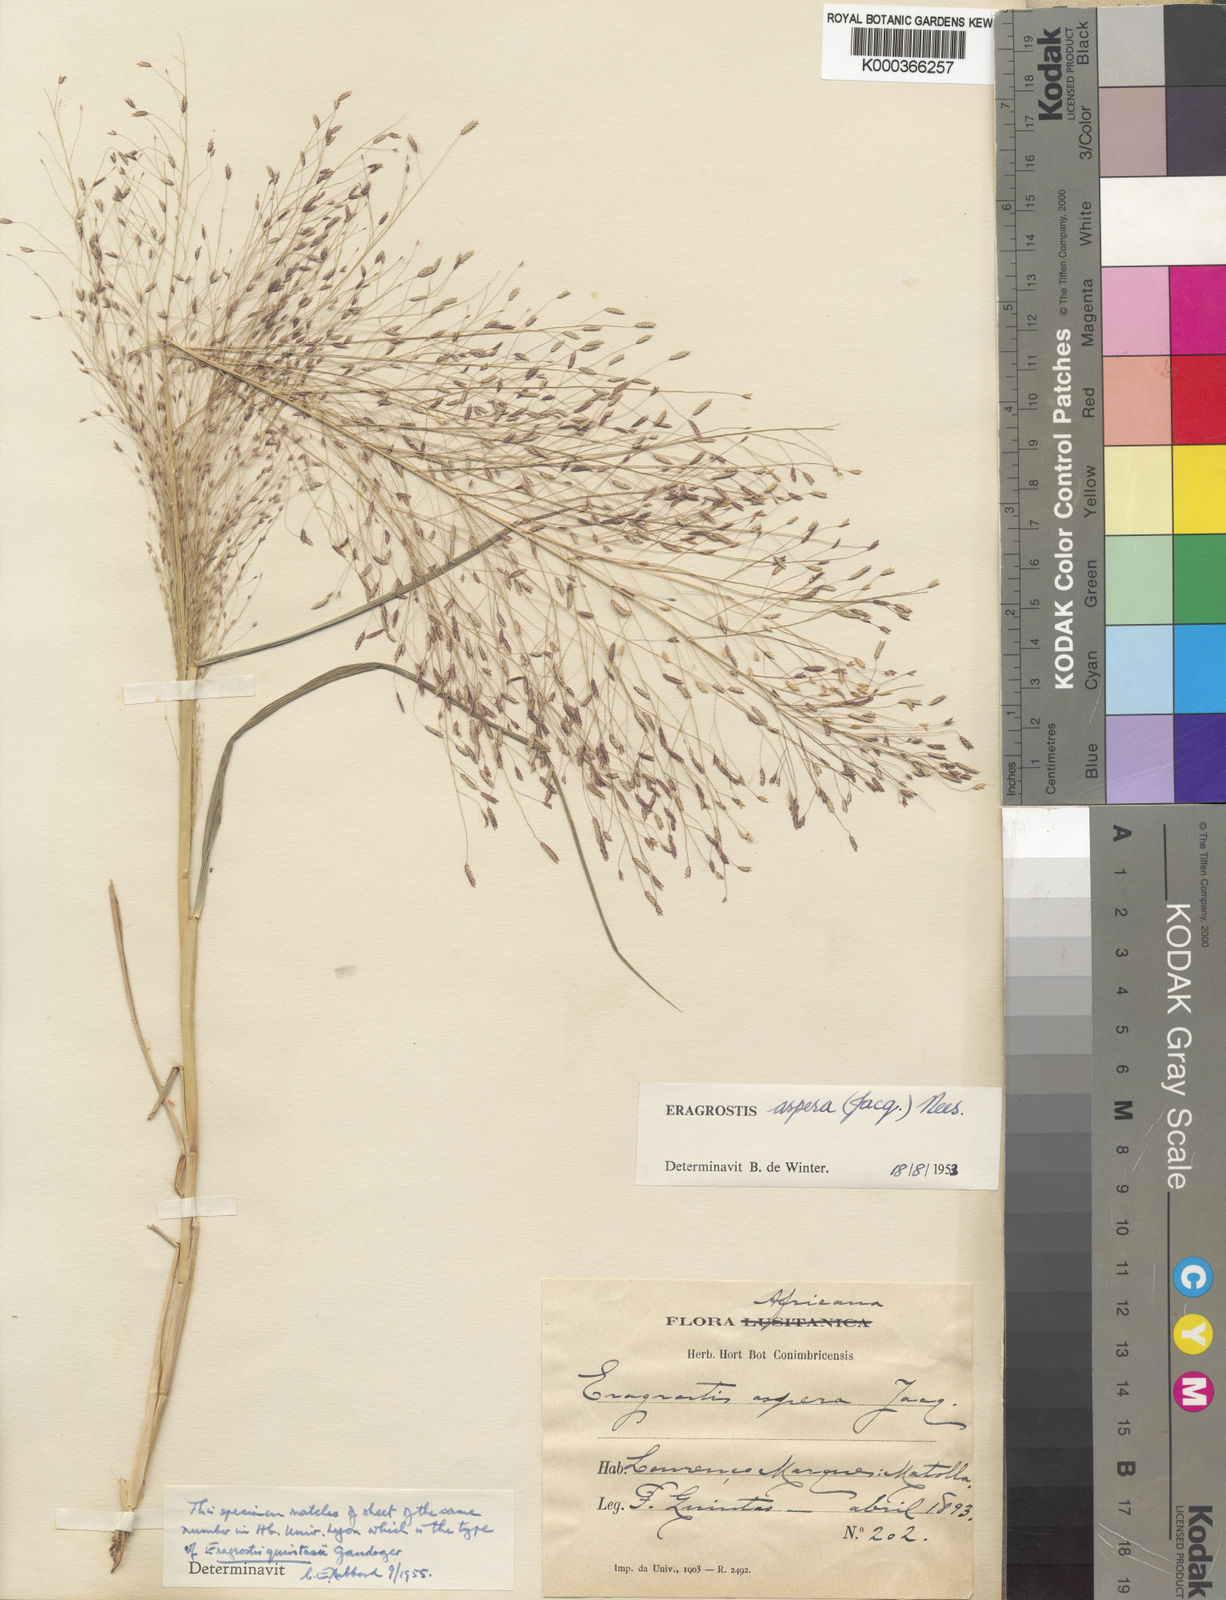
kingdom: Plantae
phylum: Tracheophyta
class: Liliopsida
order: Poales
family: Poaceae
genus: Eragrostis
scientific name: Eragrostis aspera
